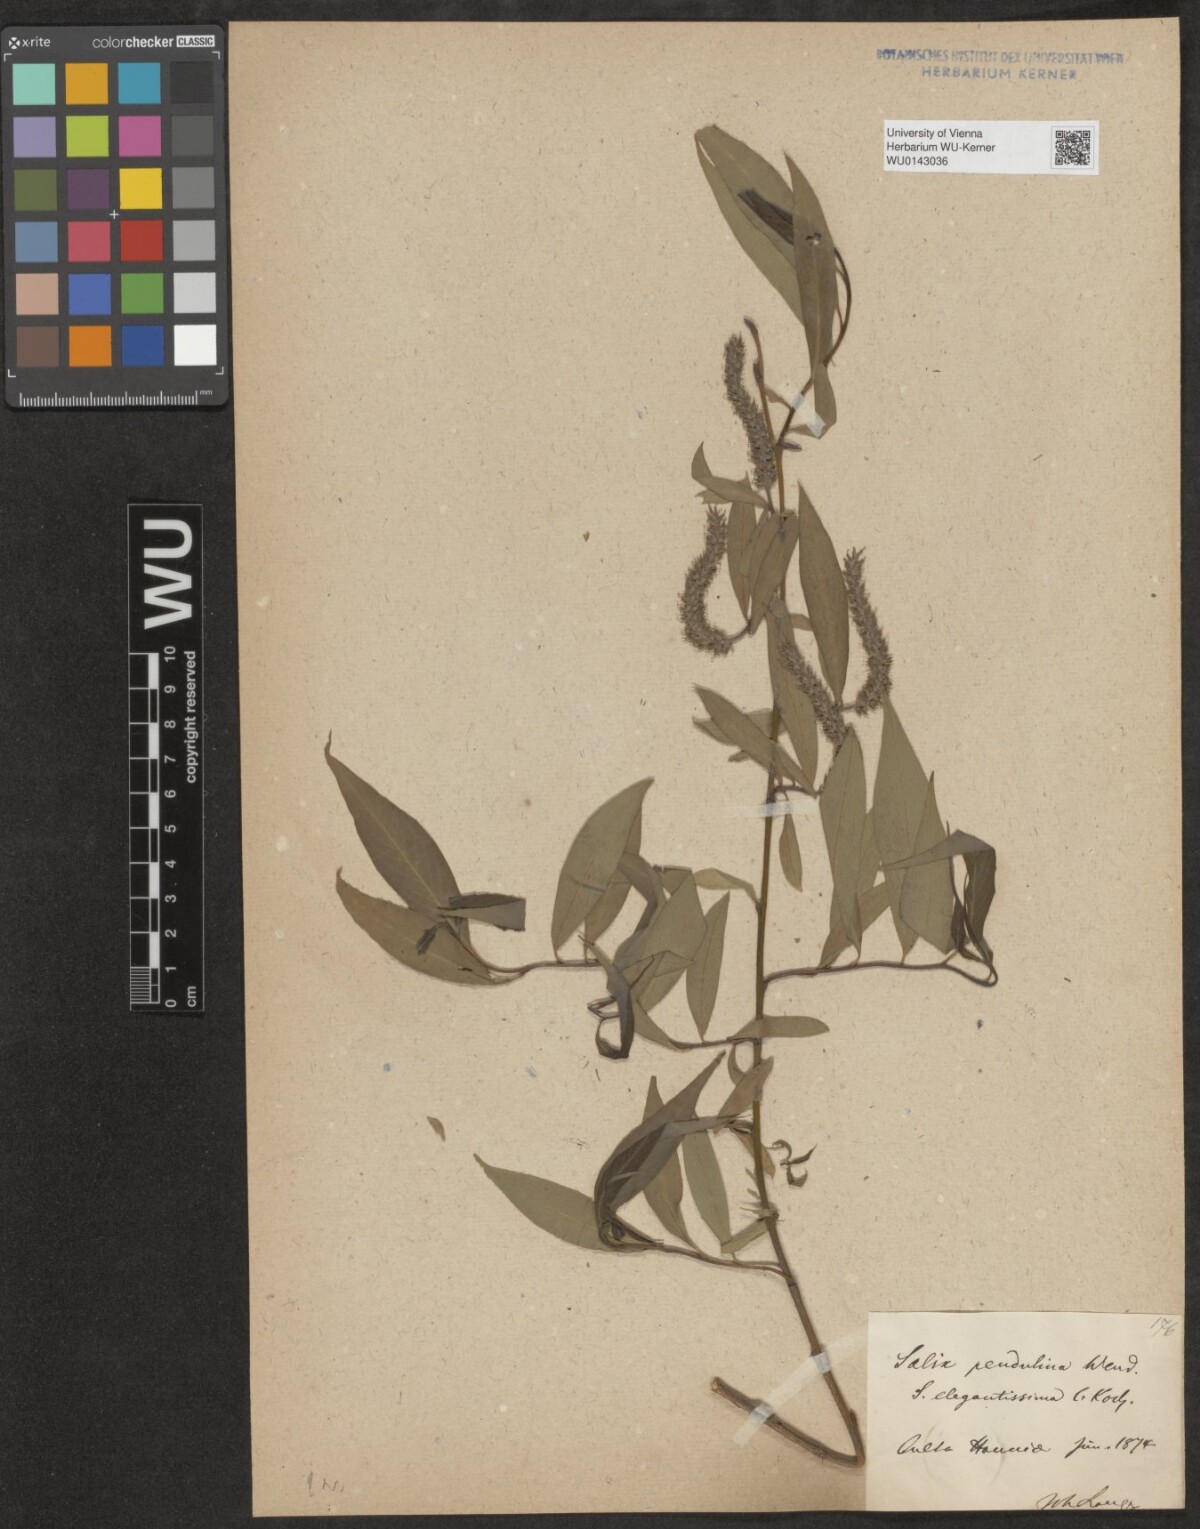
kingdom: Plantae
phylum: Tracheophyta
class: Magnoliopsida
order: Malpighiales
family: Salicaceae
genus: Salix
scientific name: Salix pendulina
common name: Wisconsin weeping willow
